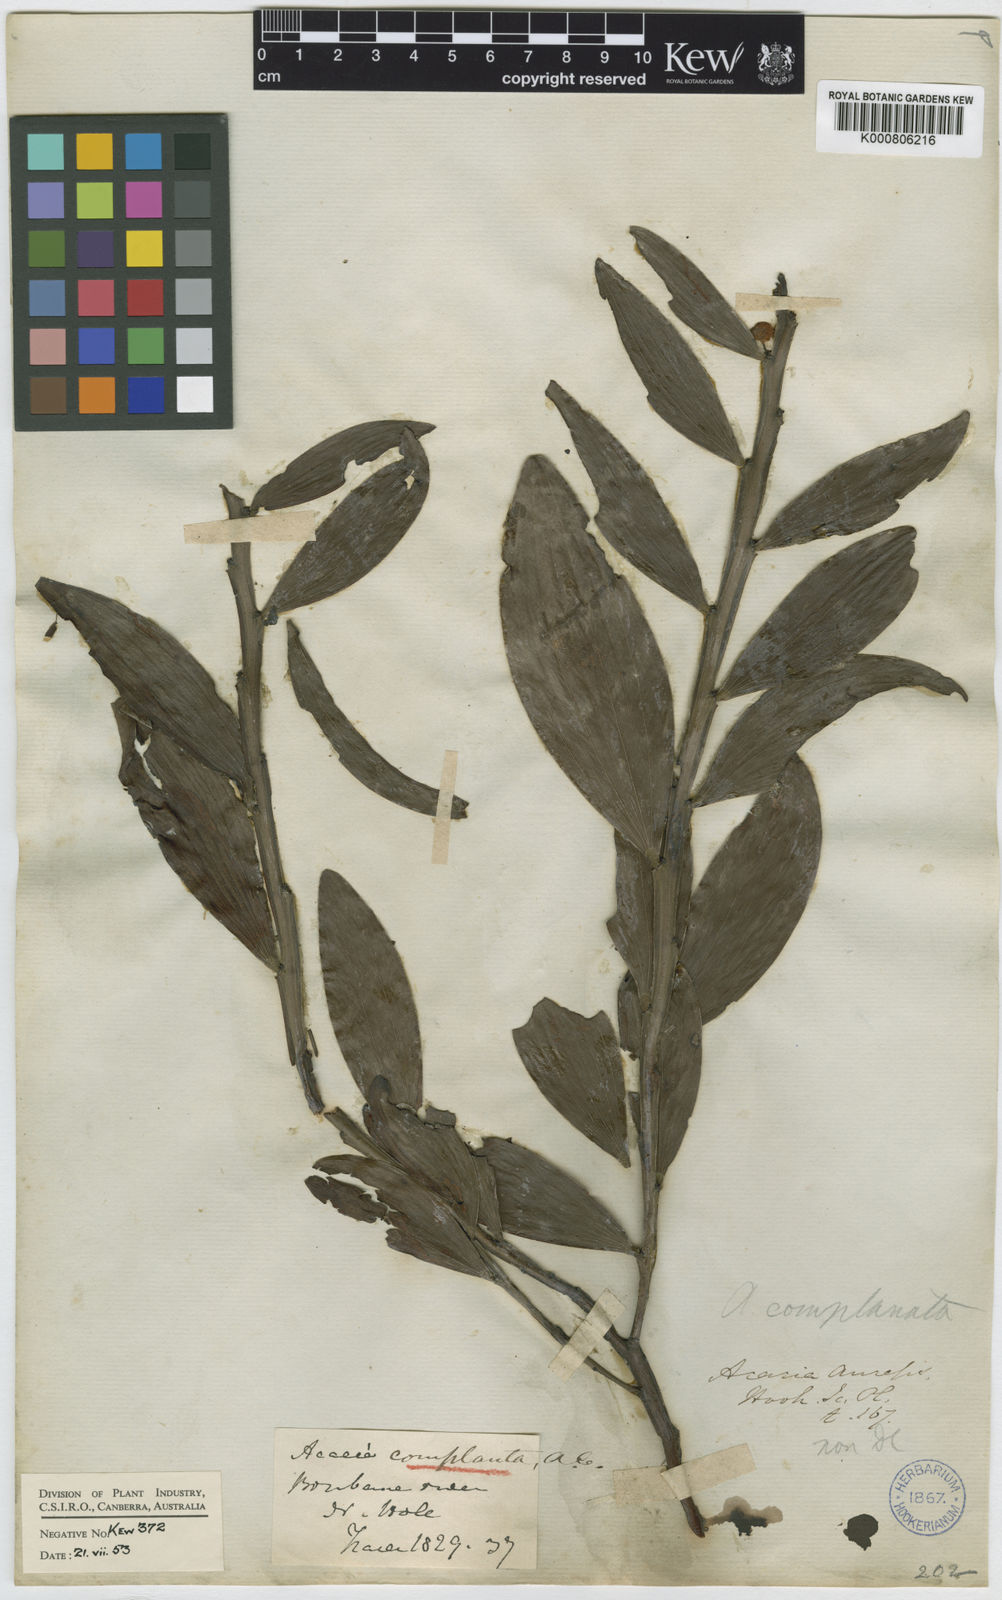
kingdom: Plantae
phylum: Tracheophyta
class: Magnoliopsida
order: Fabales
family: Fabaceae
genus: Acacia
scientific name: Acacia
